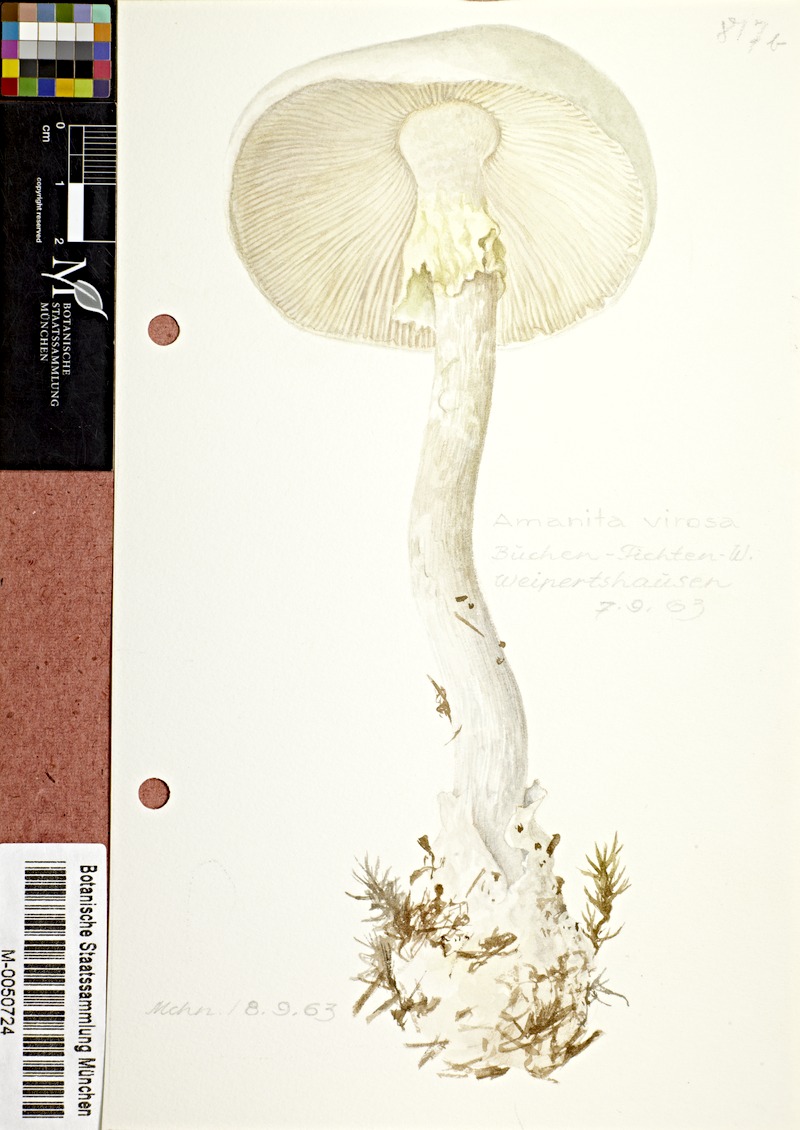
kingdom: Fungi
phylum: Basidiomycota
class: Agaricomycetes
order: Agaricales
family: Amanitaceae
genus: Amanita
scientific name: Amanita virosa
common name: Destroying angel
